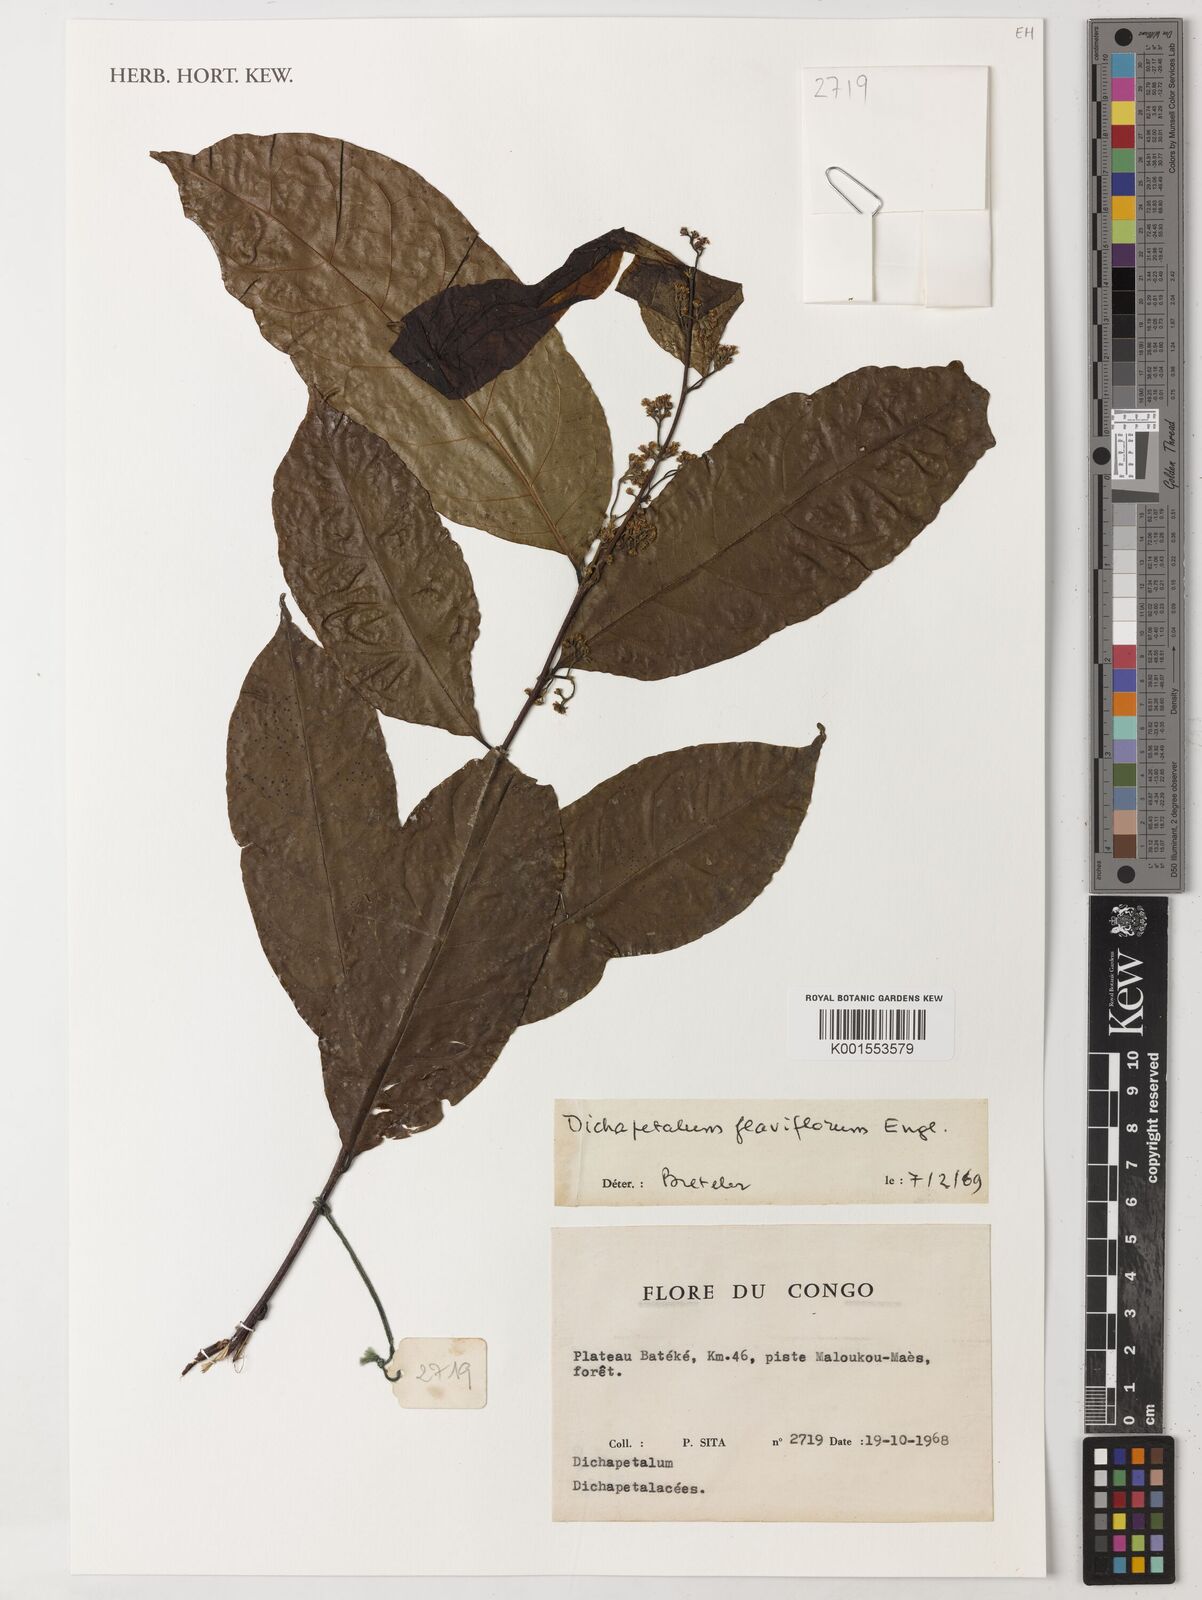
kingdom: Plantae
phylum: Tracheophyta
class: Magnoliopsida
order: Malpighiales
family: Dichapetalaceae
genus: Dichapetalum
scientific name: Dichapetalum
